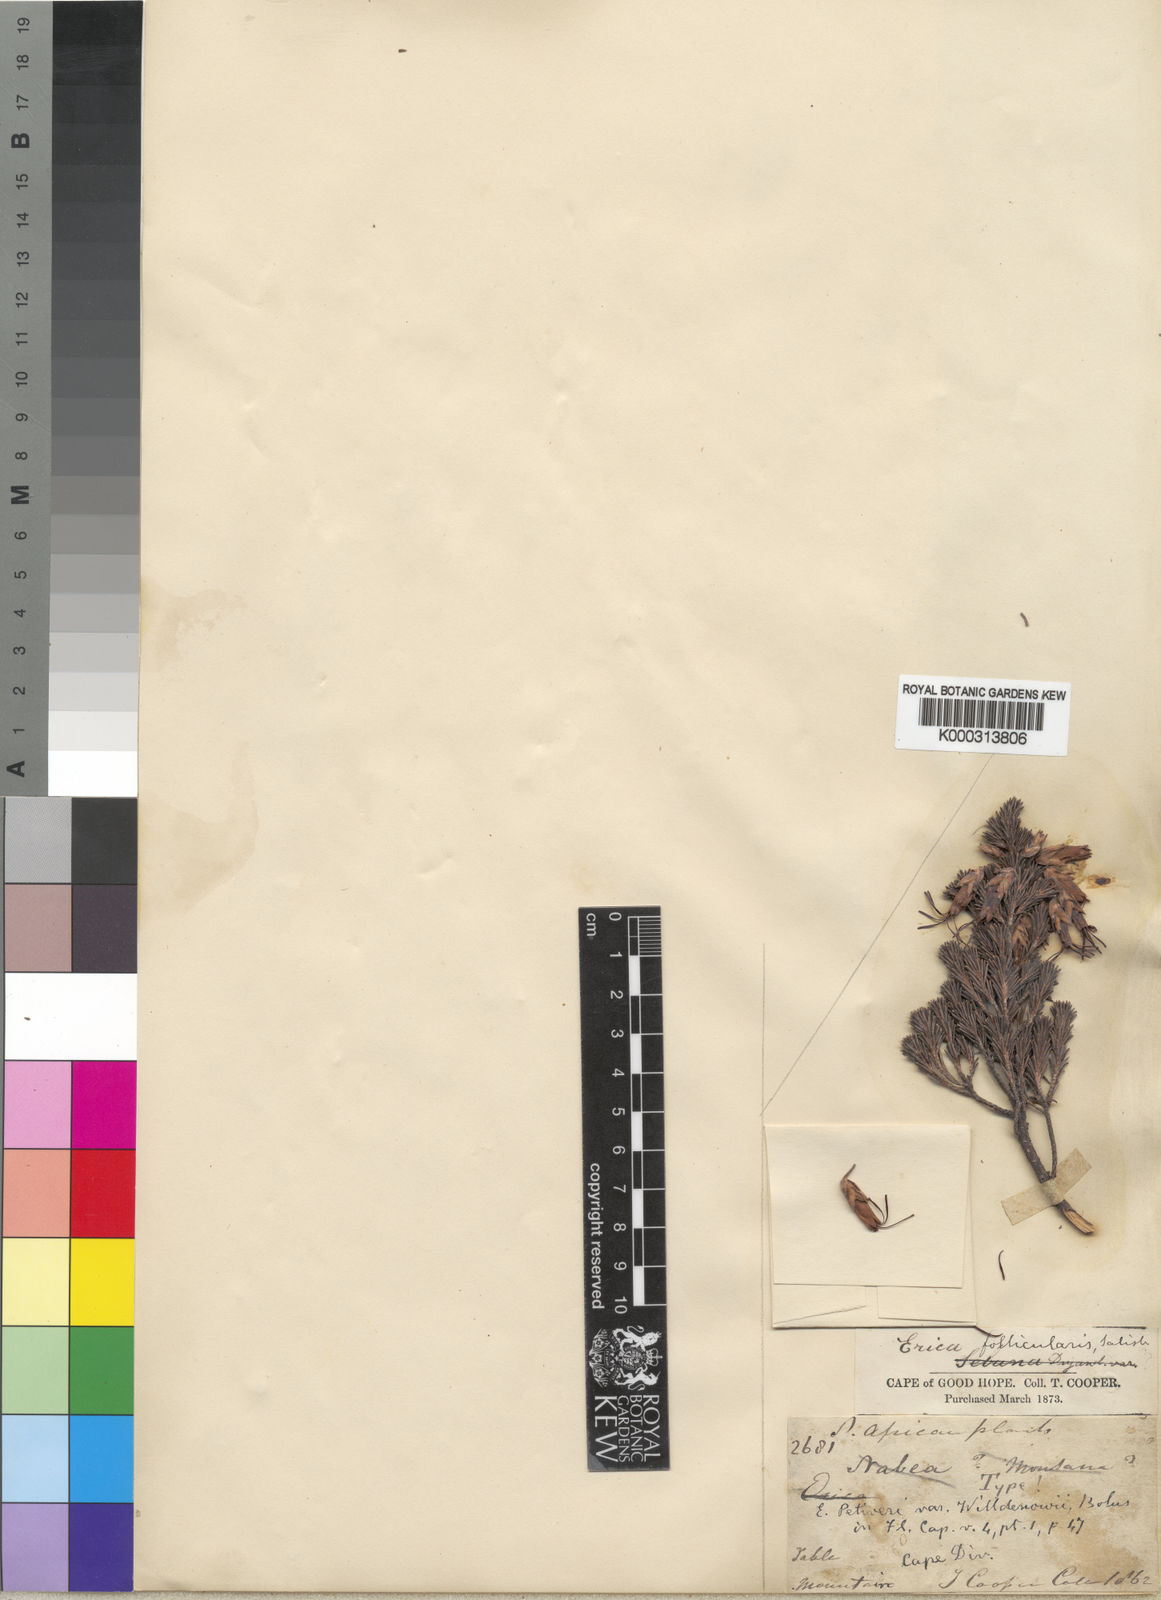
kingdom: Plantae
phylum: Tracheophyta
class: Magnoliopsida
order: Ericales
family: Ericaceae
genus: Erica
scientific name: Erica coccinea
